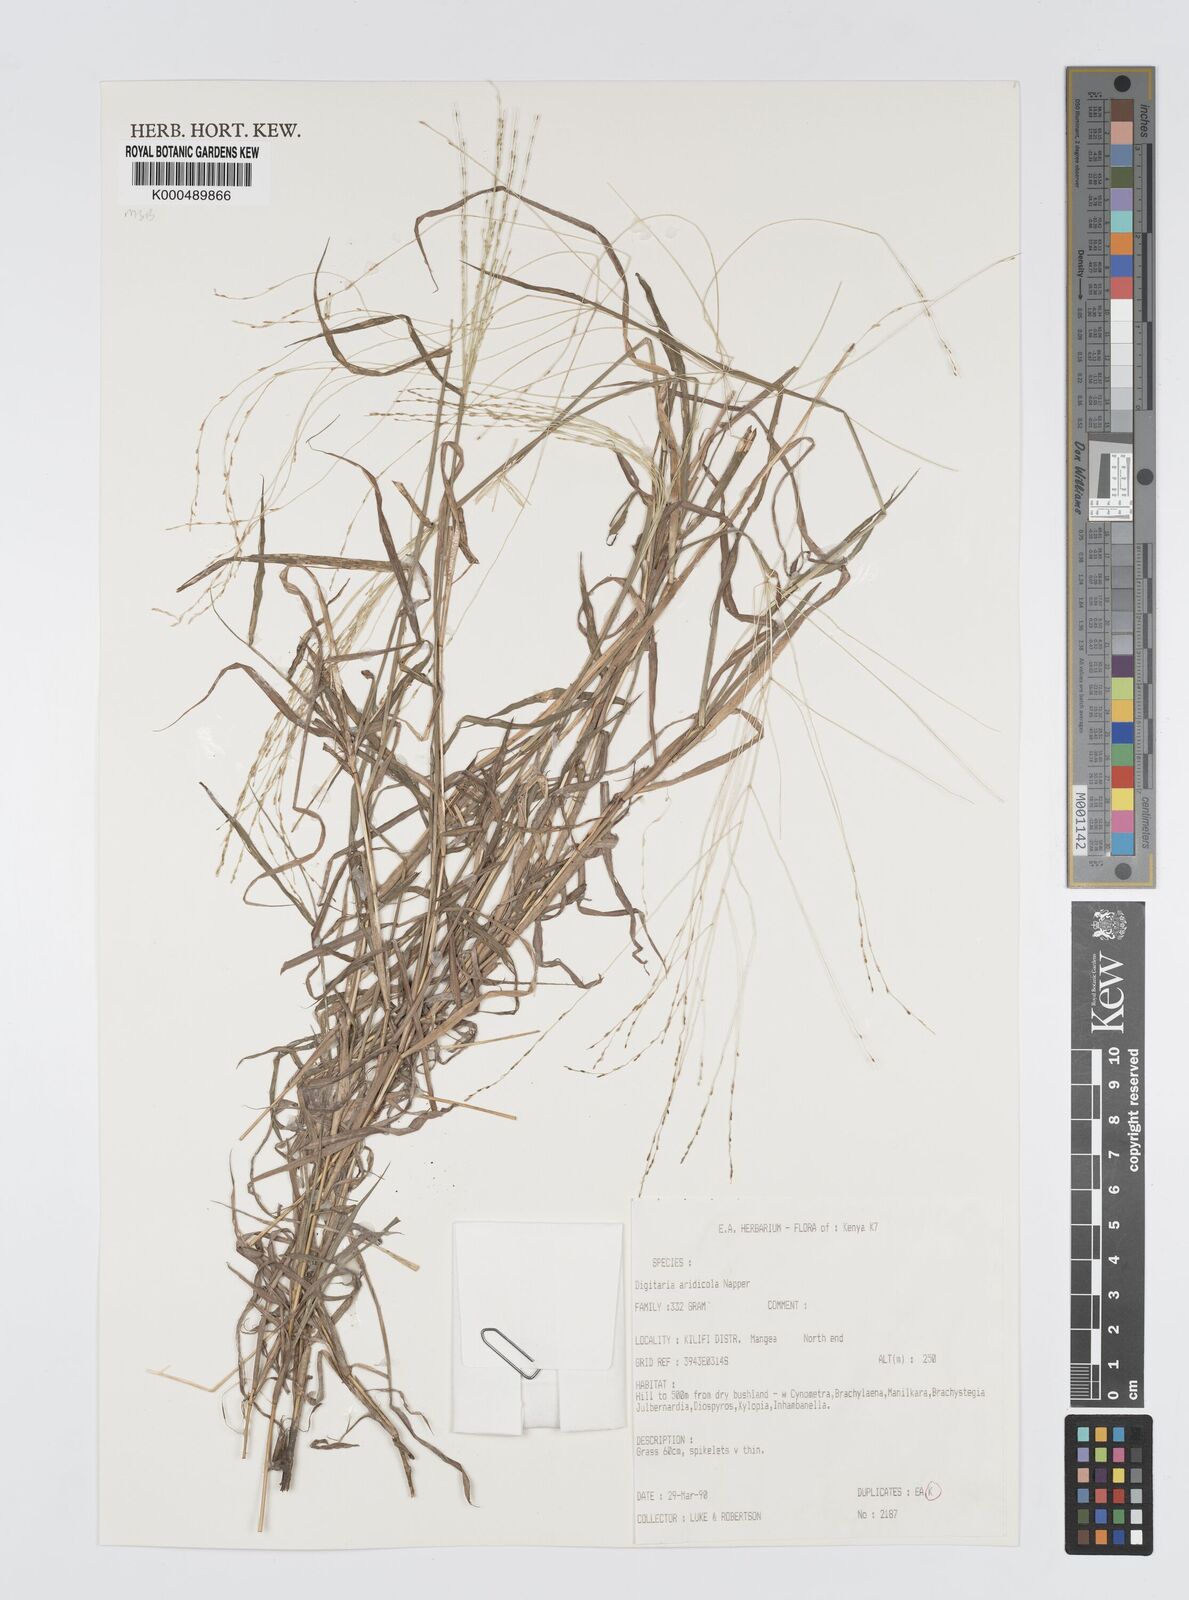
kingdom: Plantae
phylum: Tracheophyta
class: Liliopsida
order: Poales
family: Poaceae
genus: Digitaria
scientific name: Digitaria aridicola
